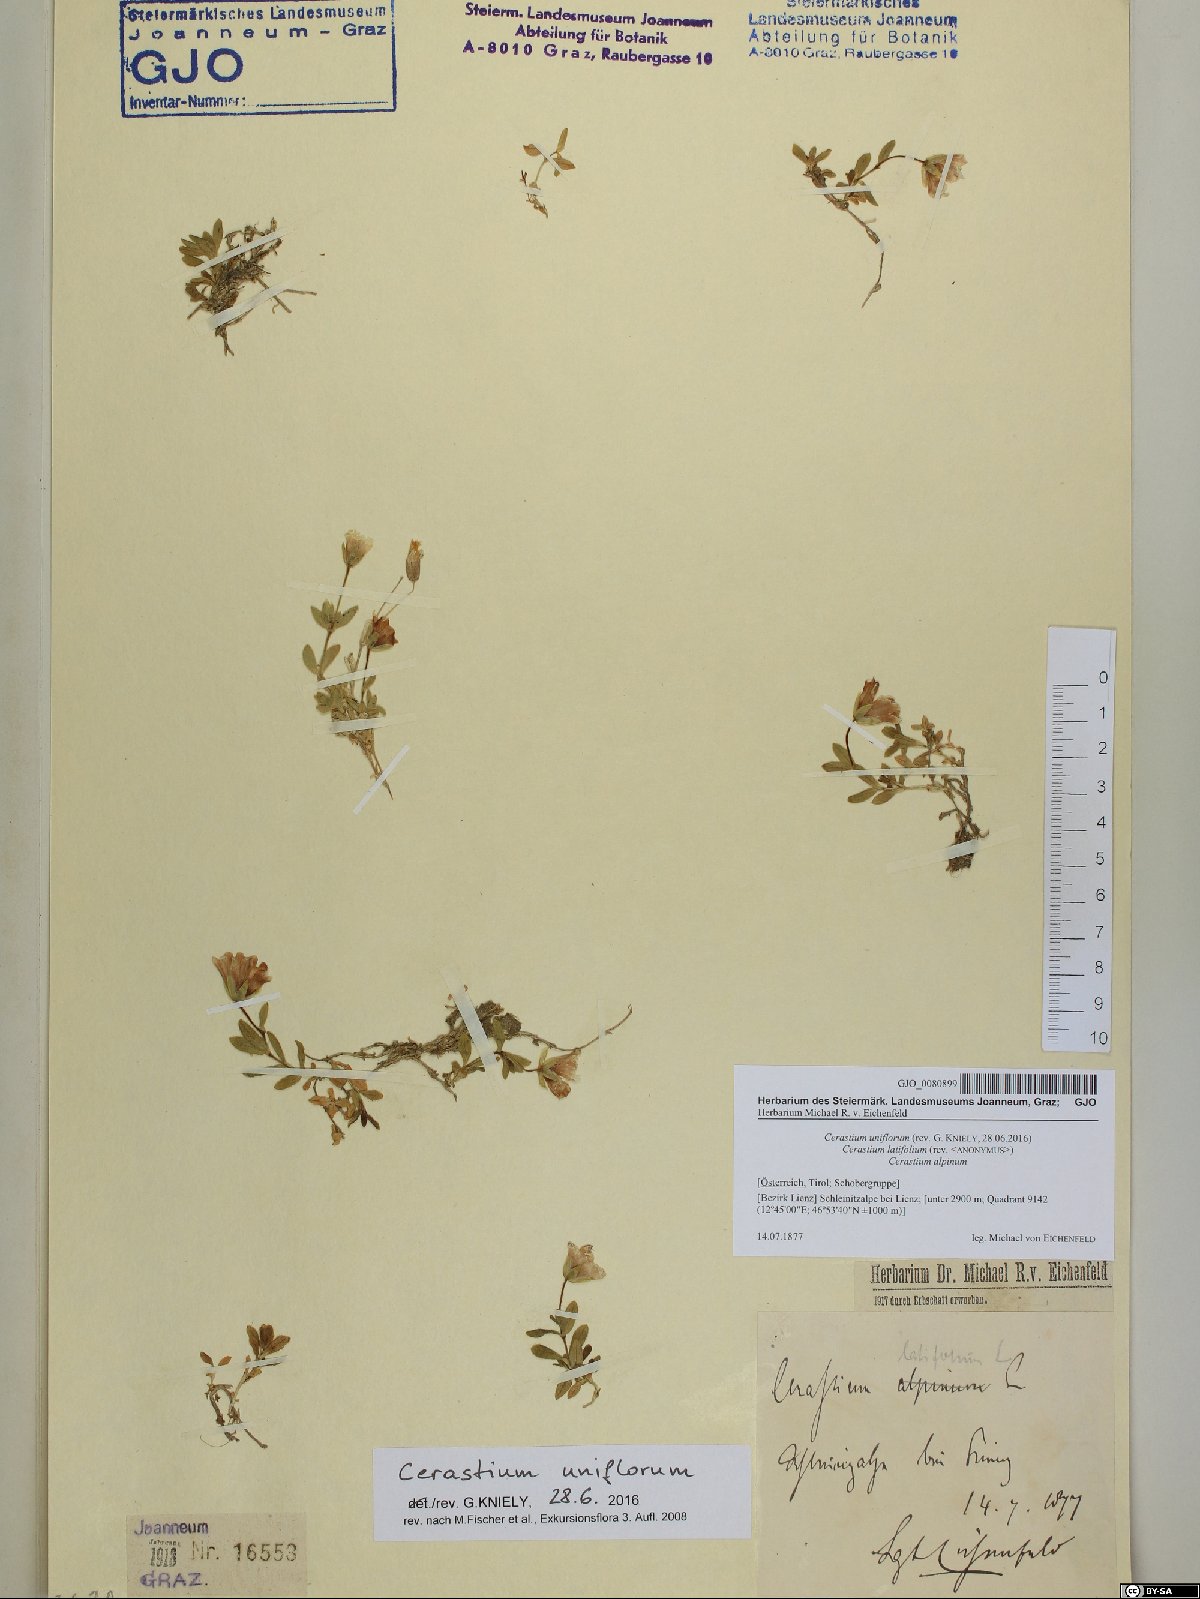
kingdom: Plantae
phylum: Tracheophyta
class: Magnoliopsida
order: Caryophyllales
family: Caryophyllaceae
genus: Cerastium
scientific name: Cerastium uniflorum
